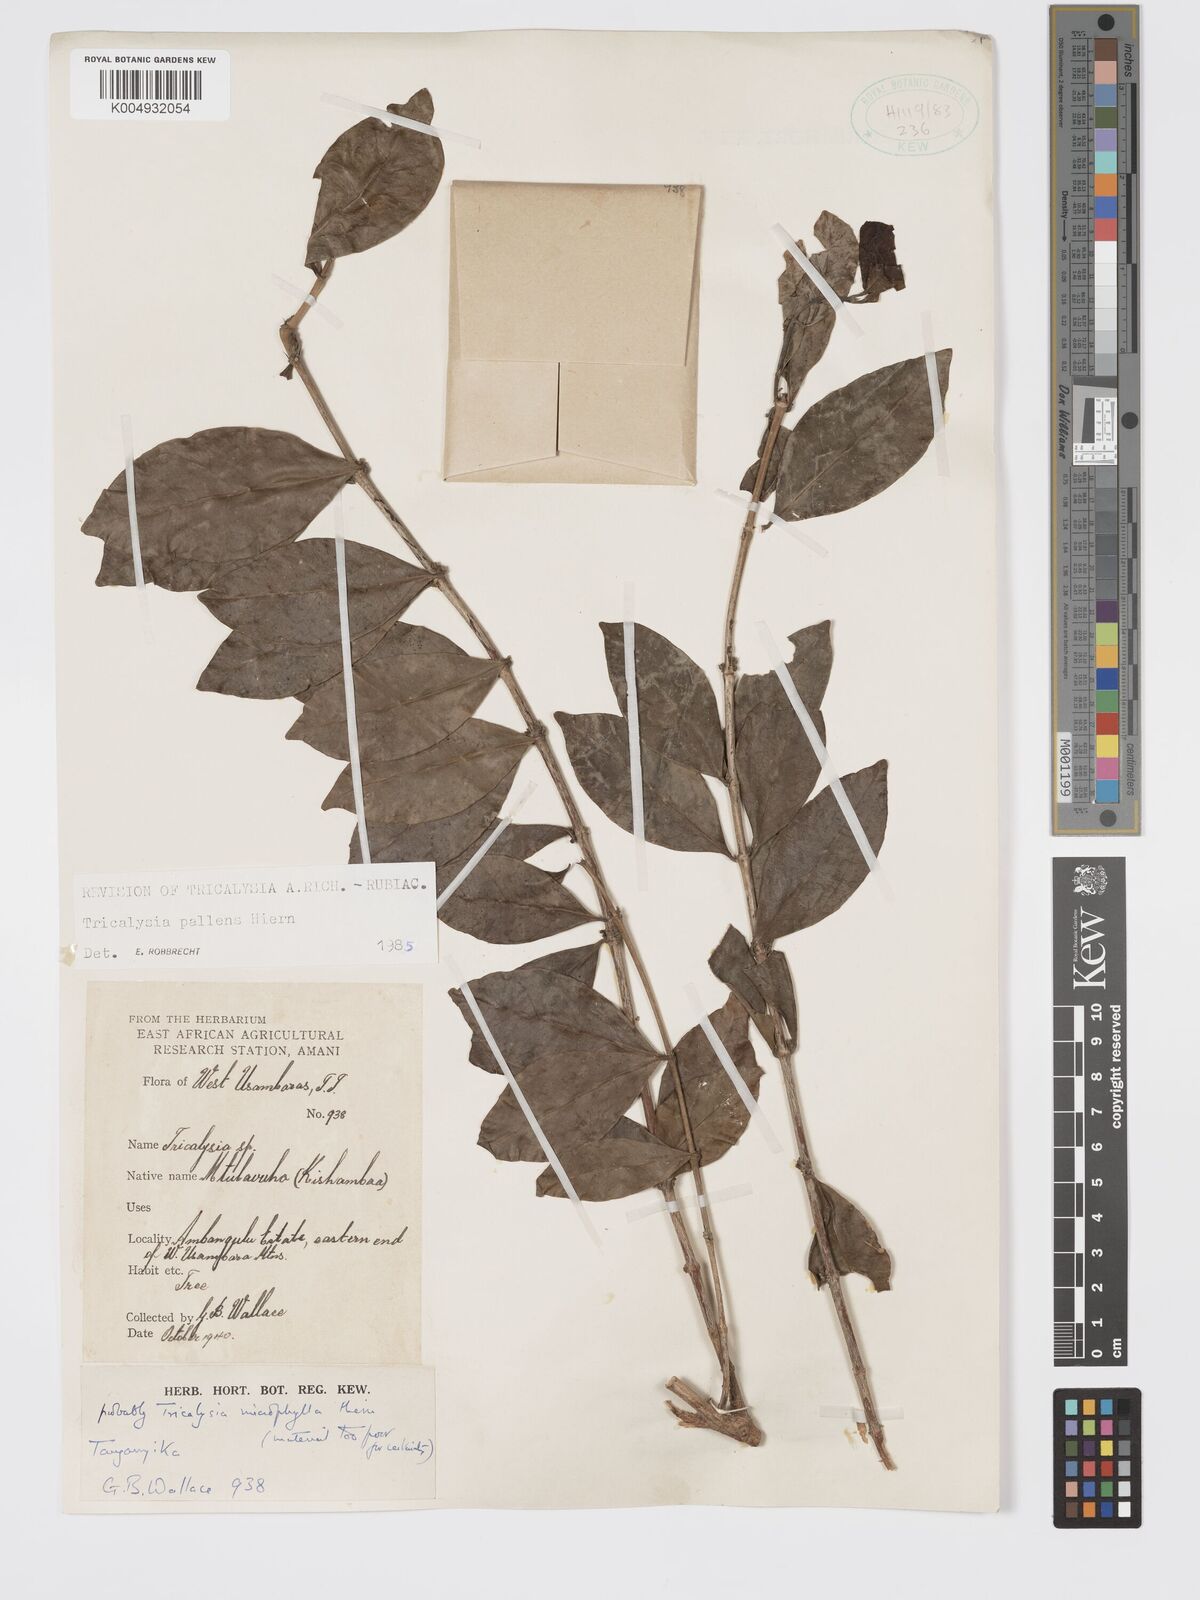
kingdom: Plantae
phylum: Tracheophyta
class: Magnoliopsida
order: Gentianales
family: Rubiaceae
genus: Tricalysia
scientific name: Tricalysia pallens
